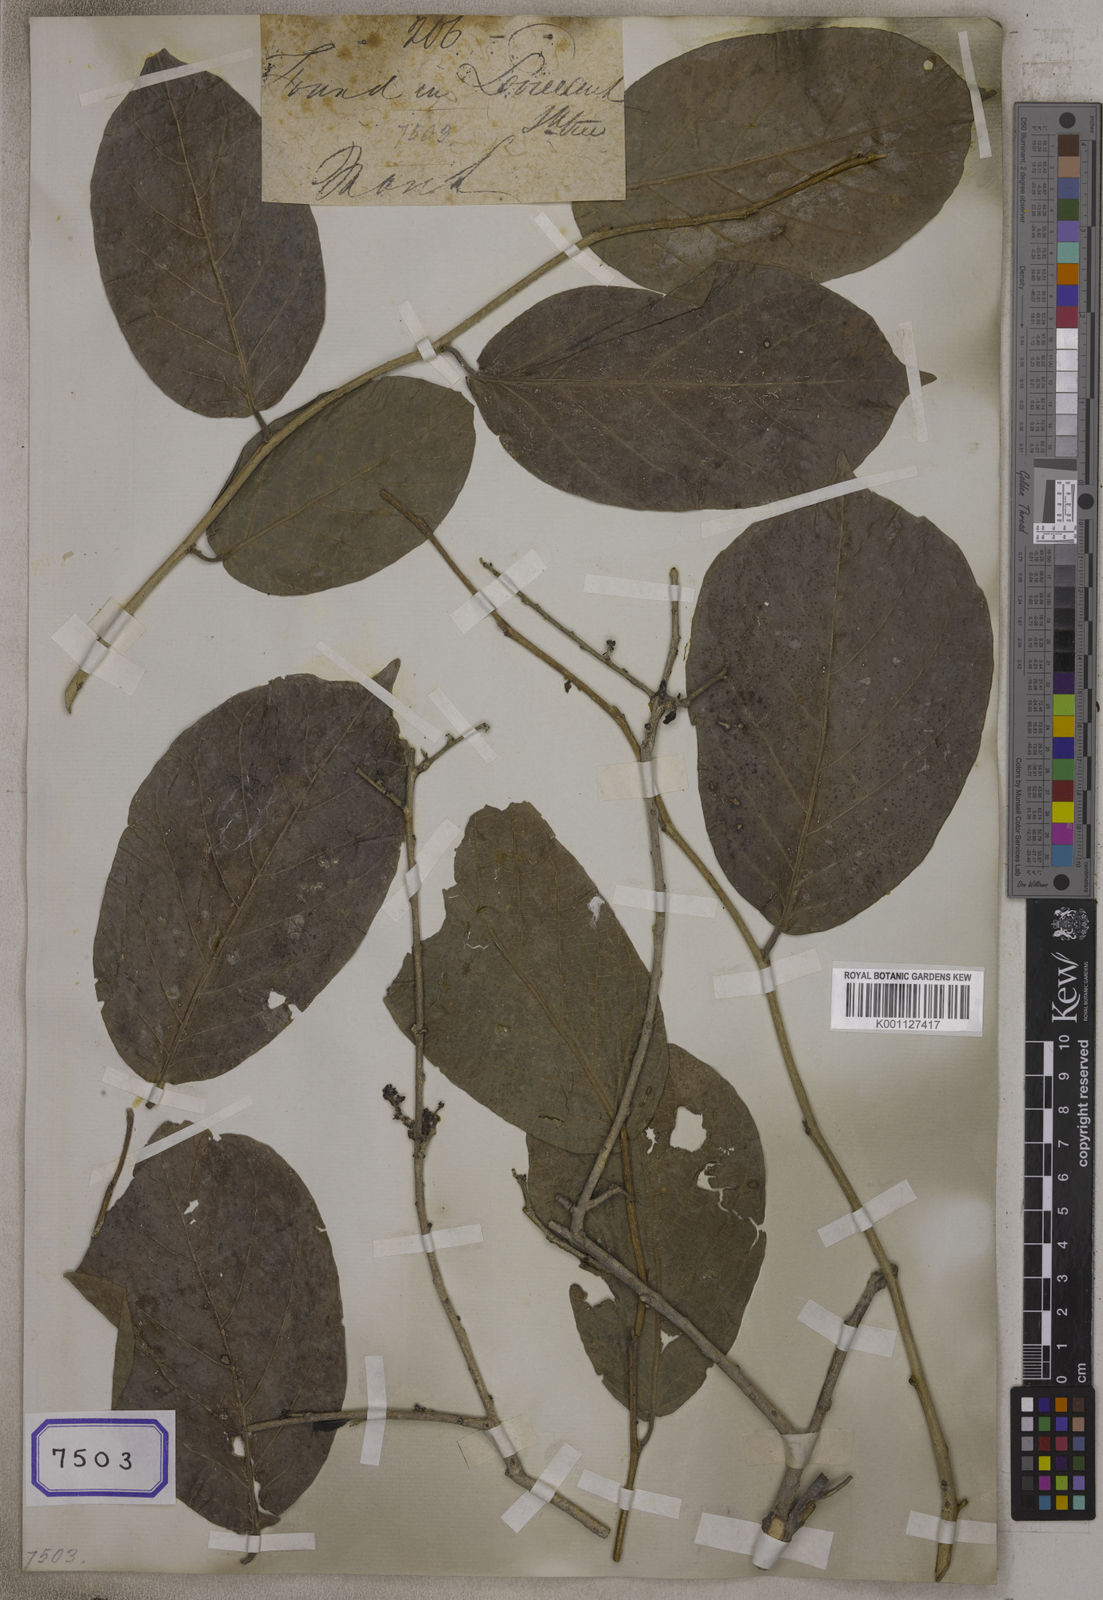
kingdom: Plantae
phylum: Tracheophyta
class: Magnoliopsida
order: Celastrales
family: Celastraceae
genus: Elaeodendron
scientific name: Elaeodendron
